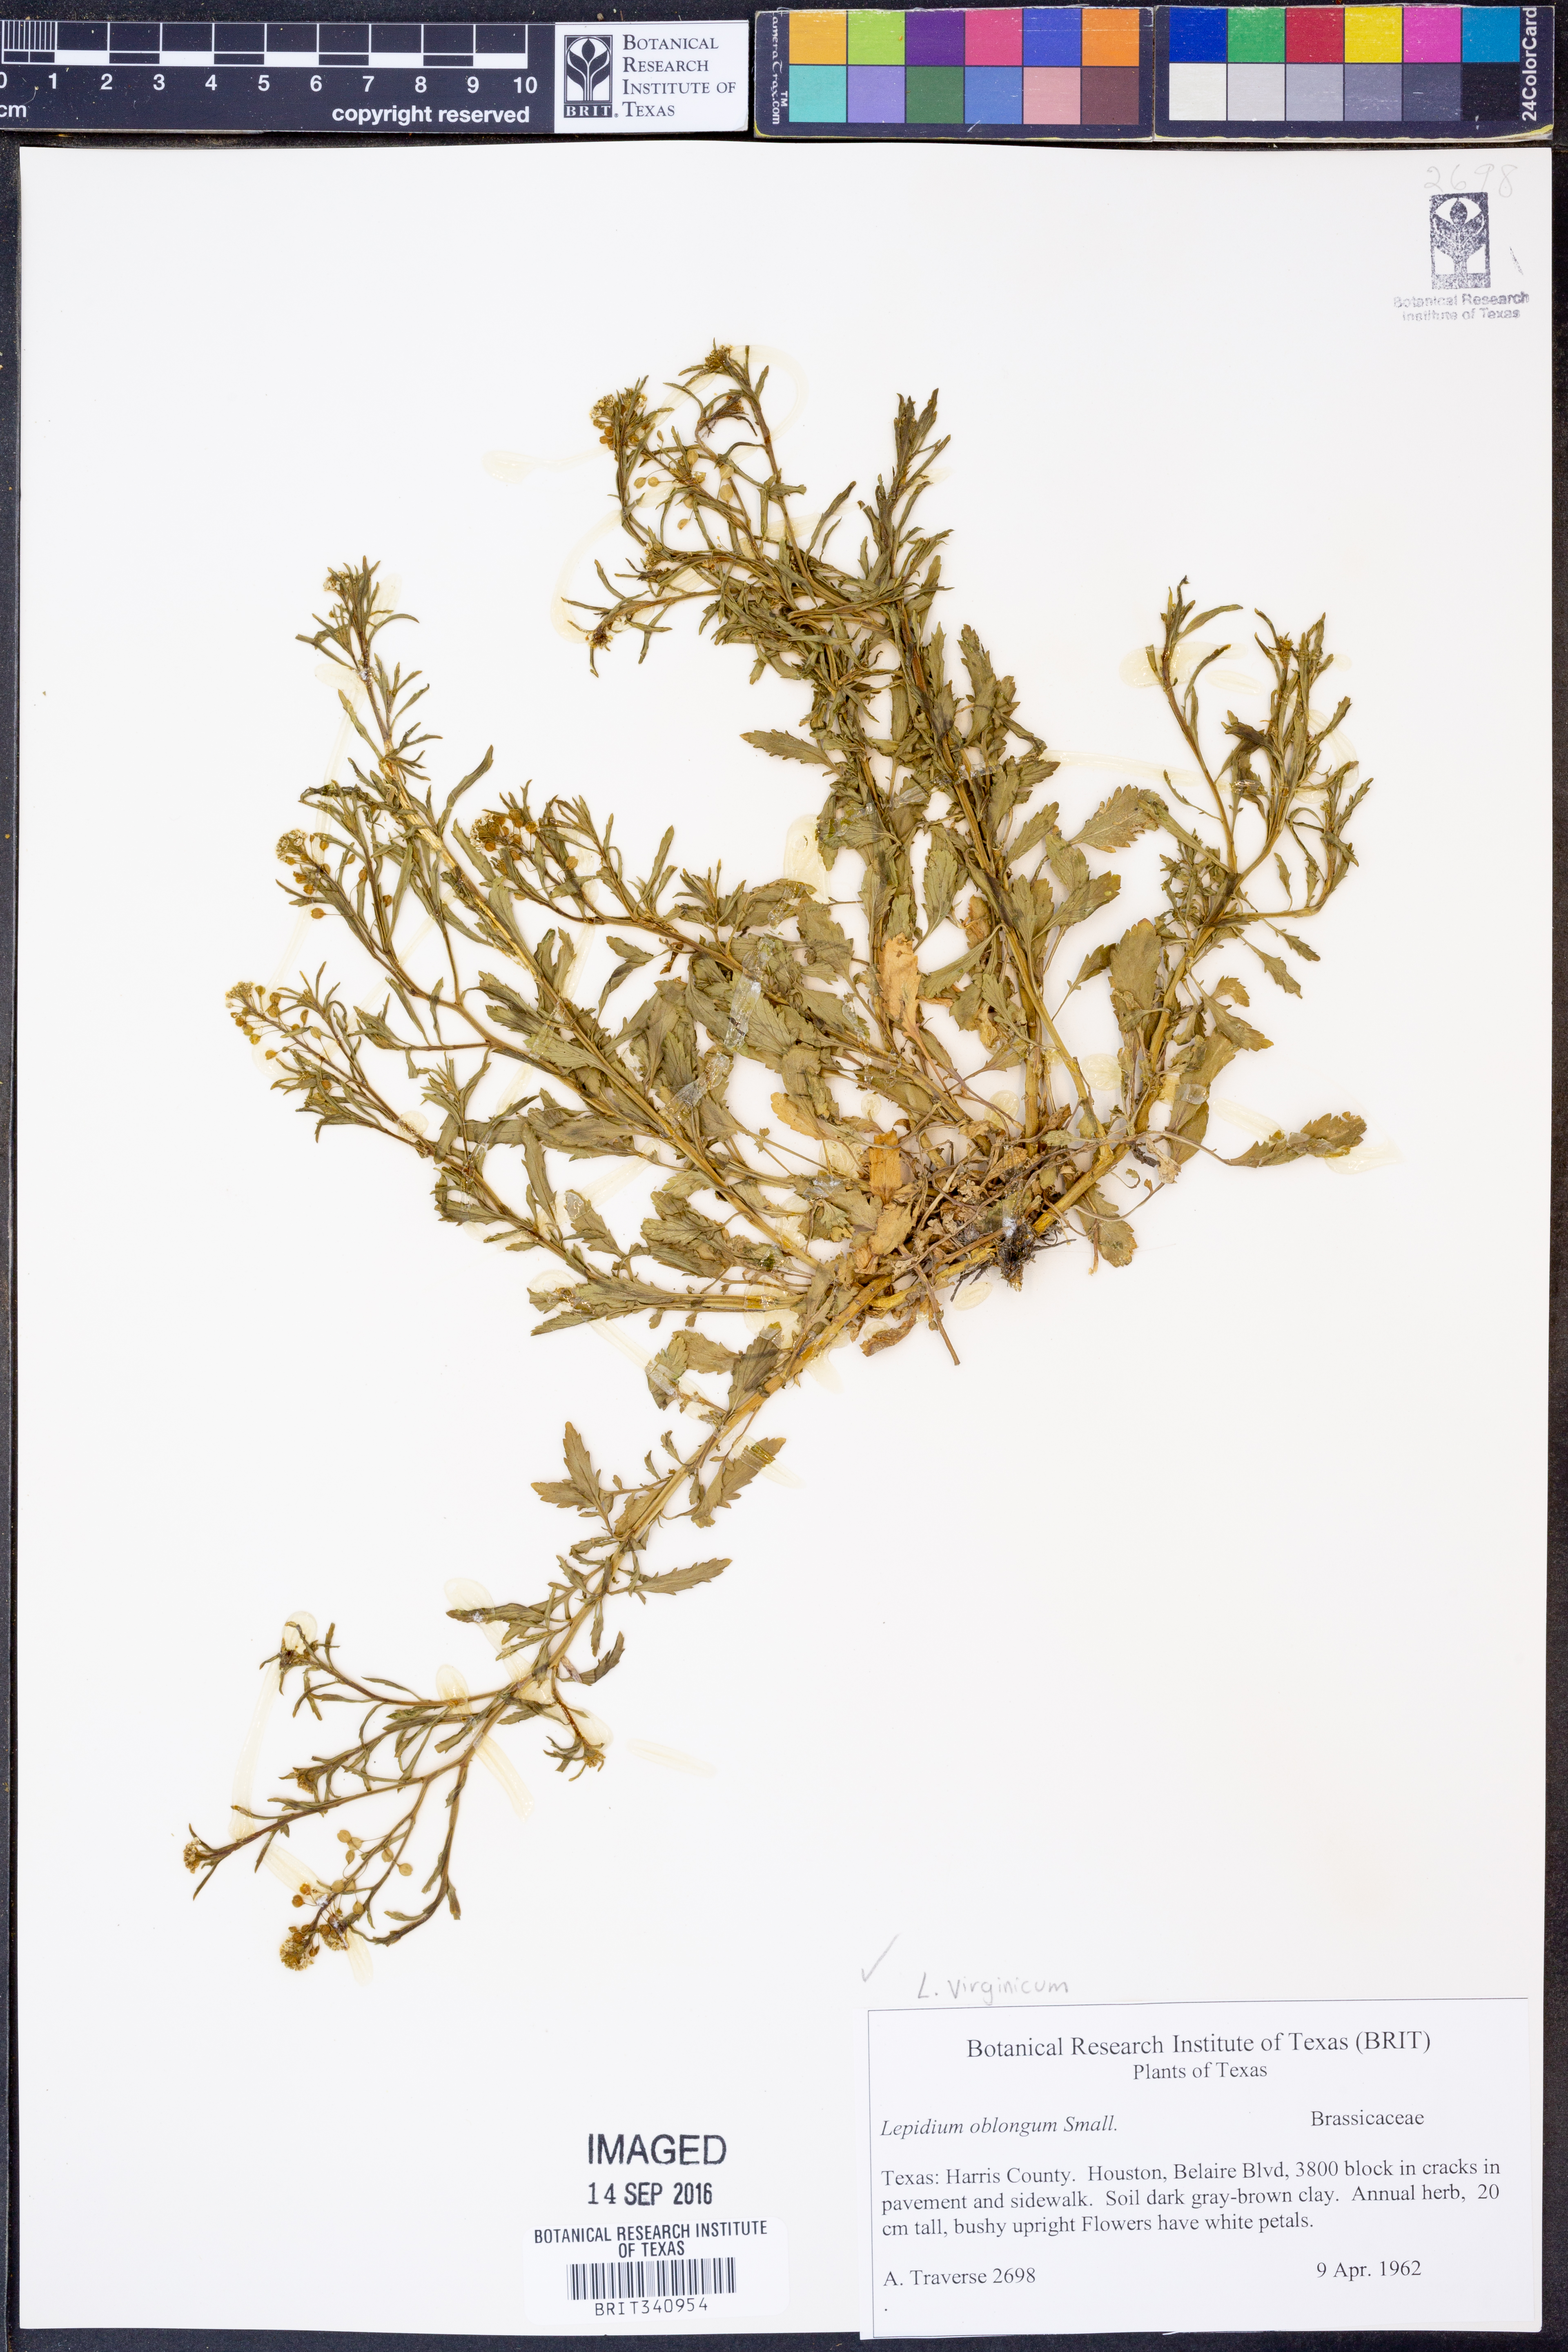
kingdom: Plantae
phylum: Tracheophyta
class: Magnoliopsida
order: Brassicales
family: Brassicaceae
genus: Lepidium
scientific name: Lepidium virginicum
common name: Least pepperwort
